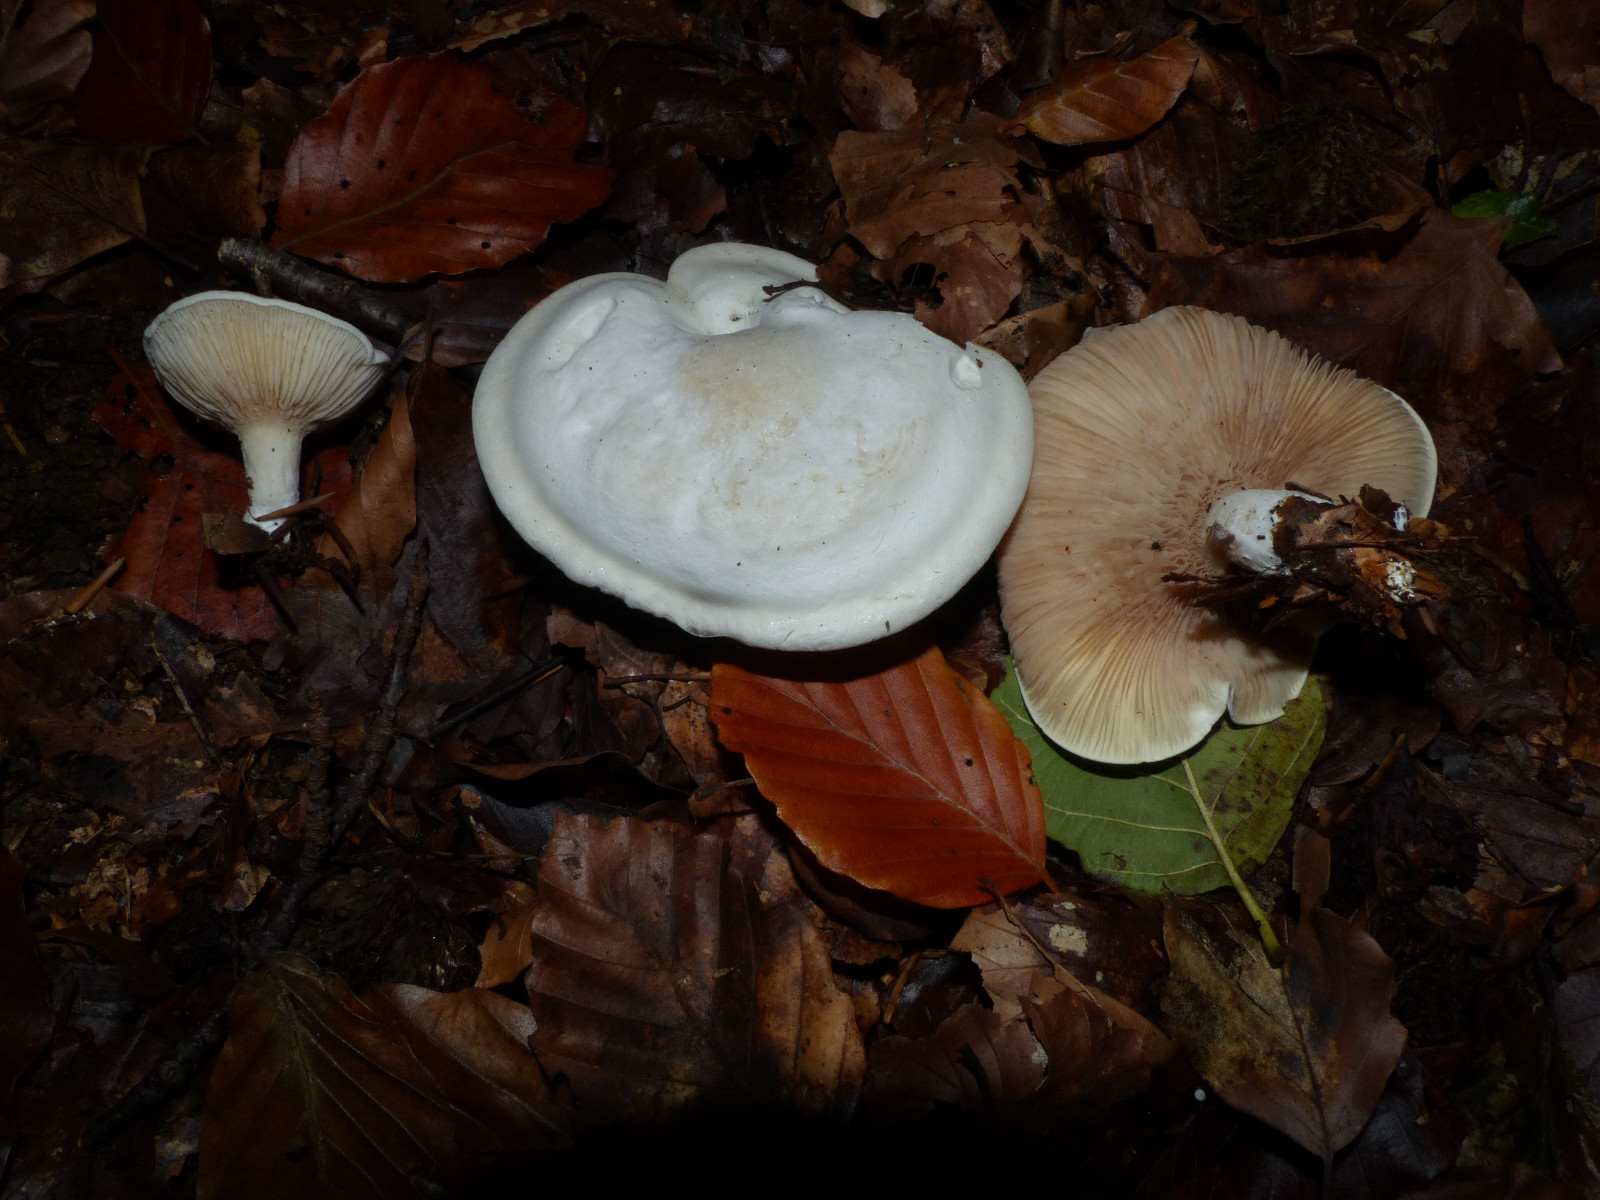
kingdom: Fungi
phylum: Basidiomycota
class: Agaricomycetes
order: Agaricales
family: Entolomataceae
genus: Clitopilus
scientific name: Clitopilus prunulus
